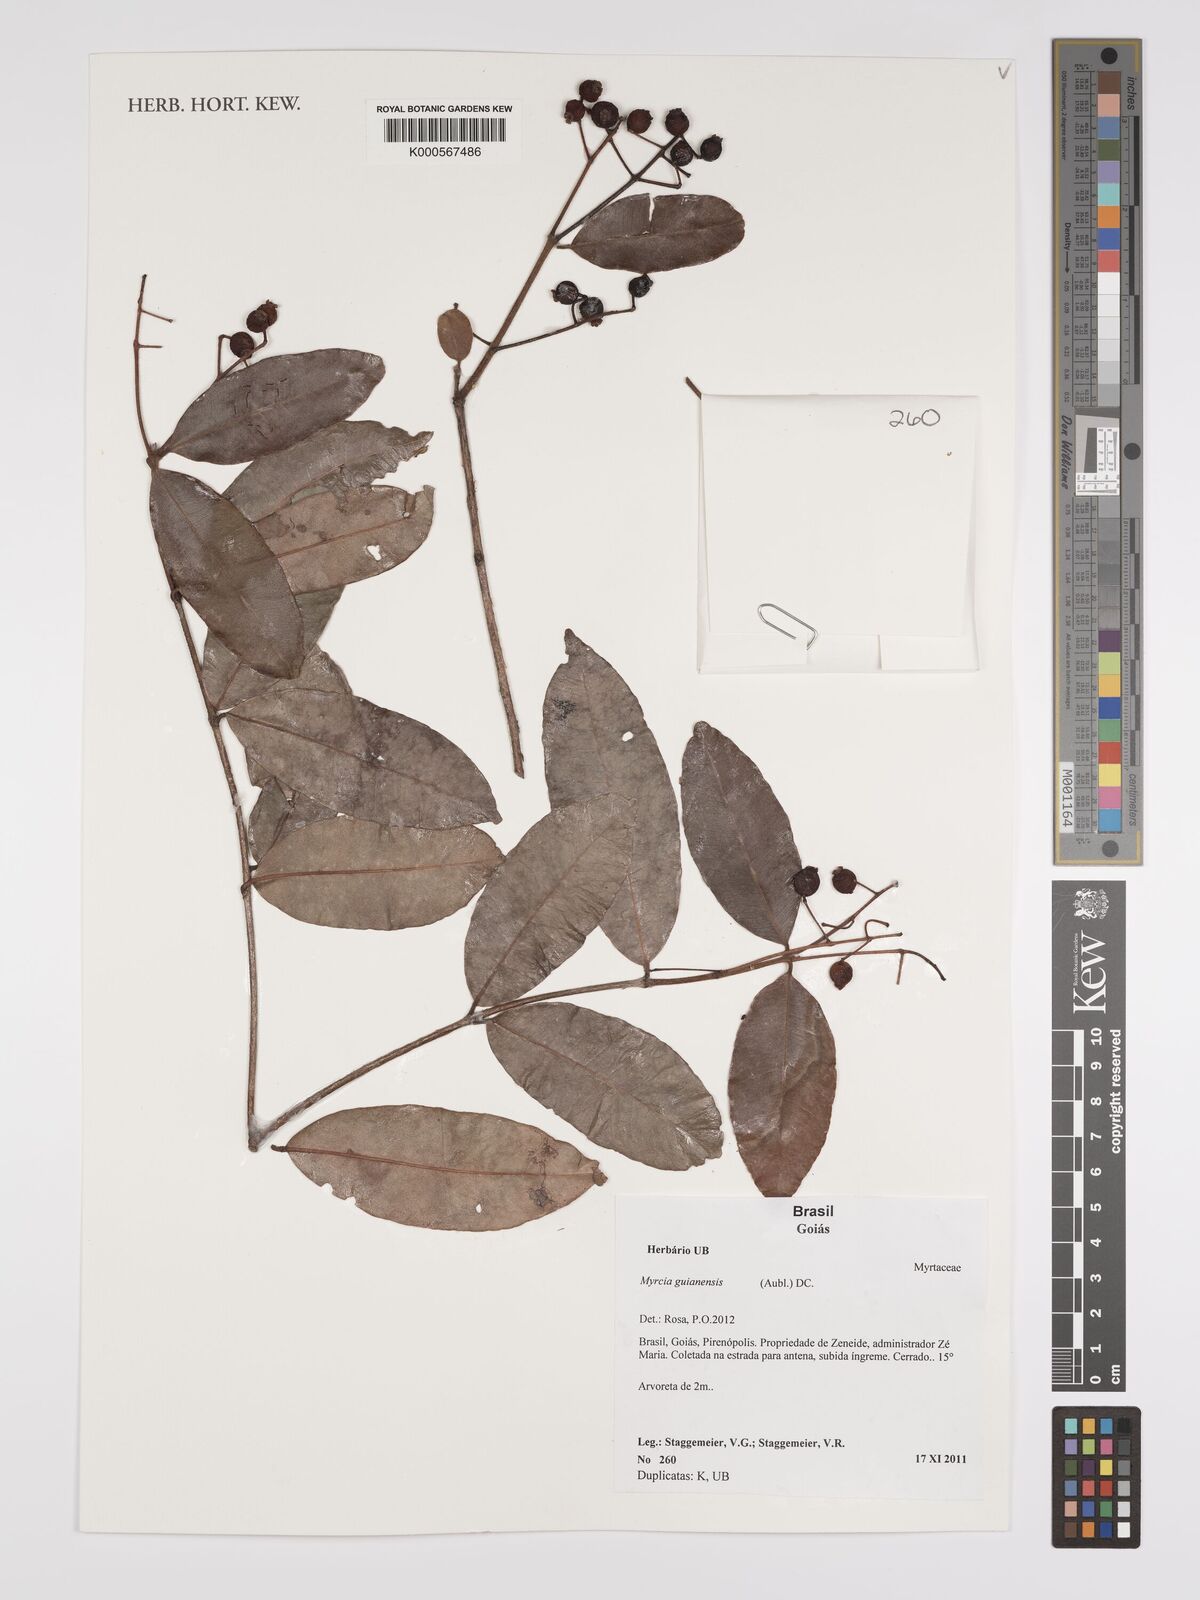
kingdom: Plantae
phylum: Tracheophyta
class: Magnoliopsida
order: Myrtales
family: Myrtaceae
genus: Myrcia
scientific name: Myrcia guianensis
